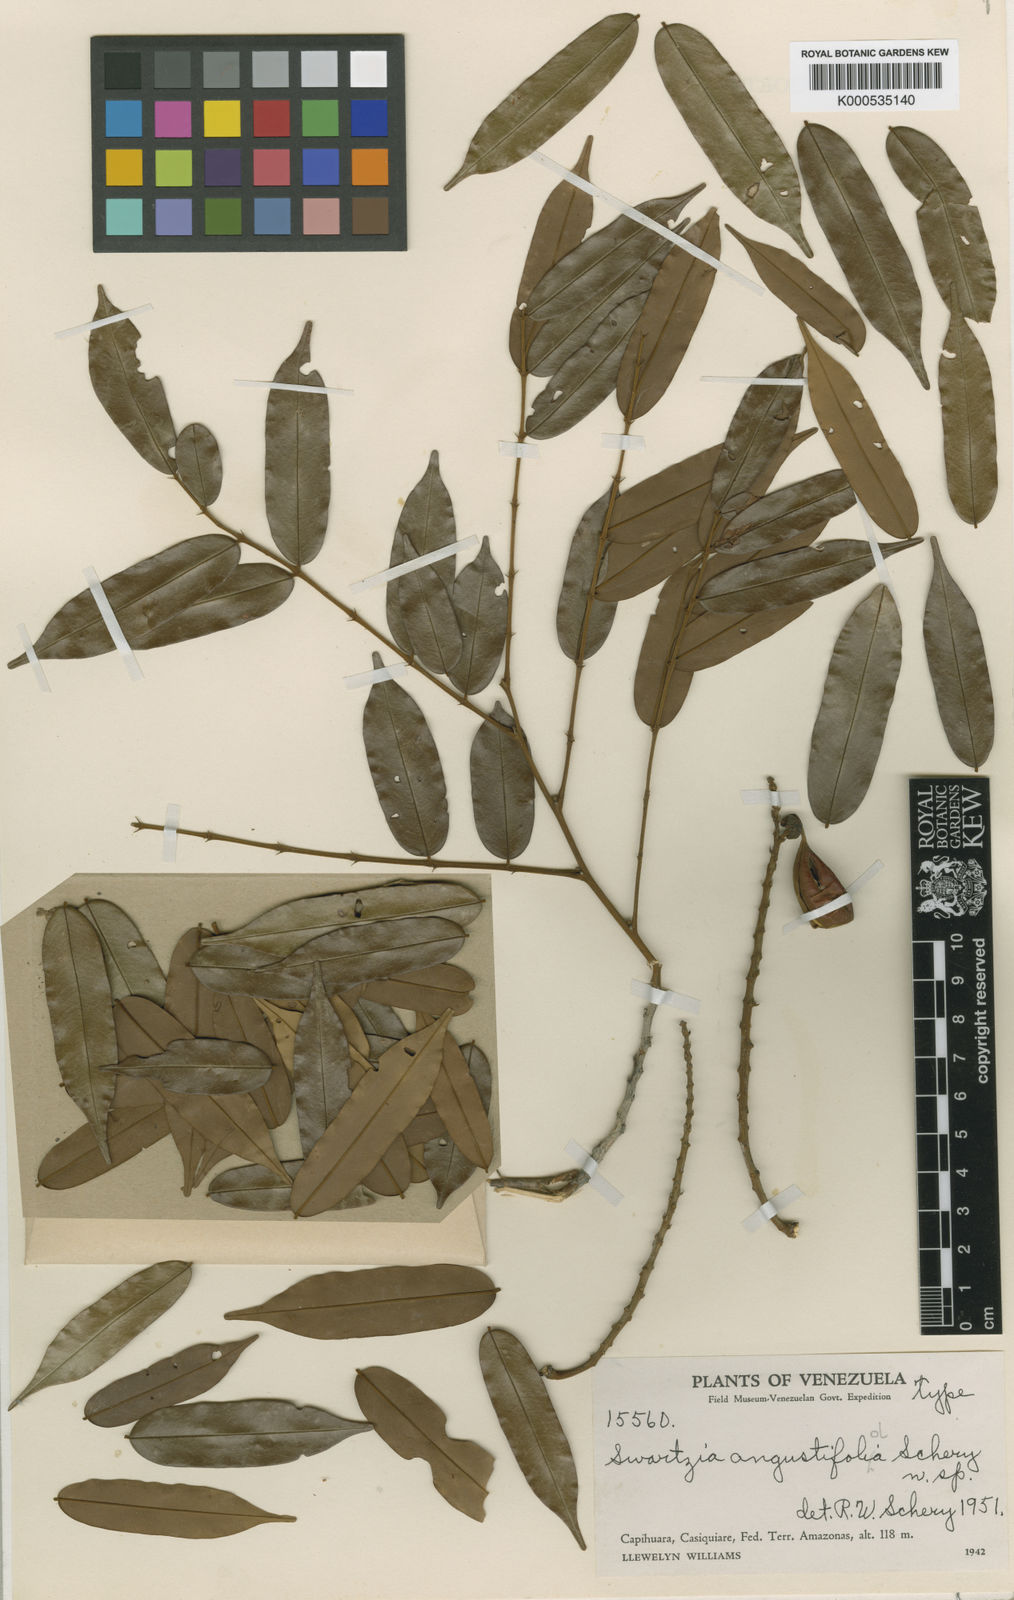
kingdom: Plantae
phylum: Tracheophyta
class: Magnoliopsida
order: Fabales
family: Fabaceae
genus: Swartzia
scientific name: Swartzia angustifoliola
